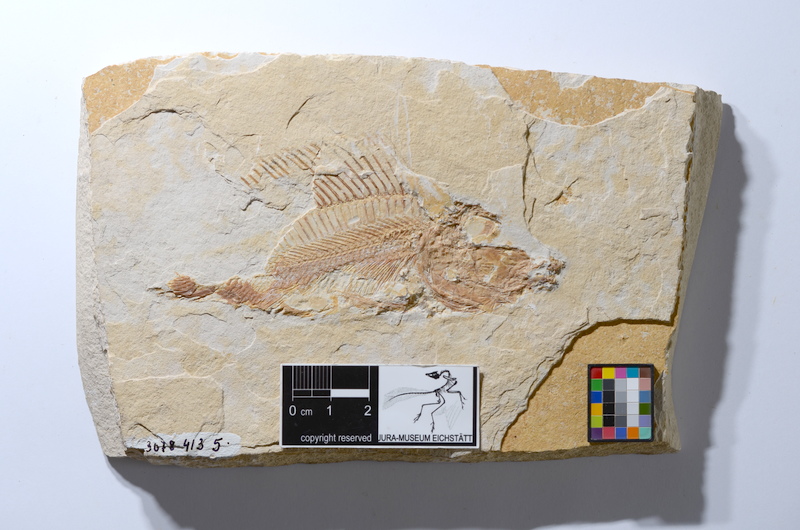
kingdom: Animalia
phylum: Chordata
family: Macrosemiidae
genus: Macrosemius
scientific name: Macrosemius rostratus
